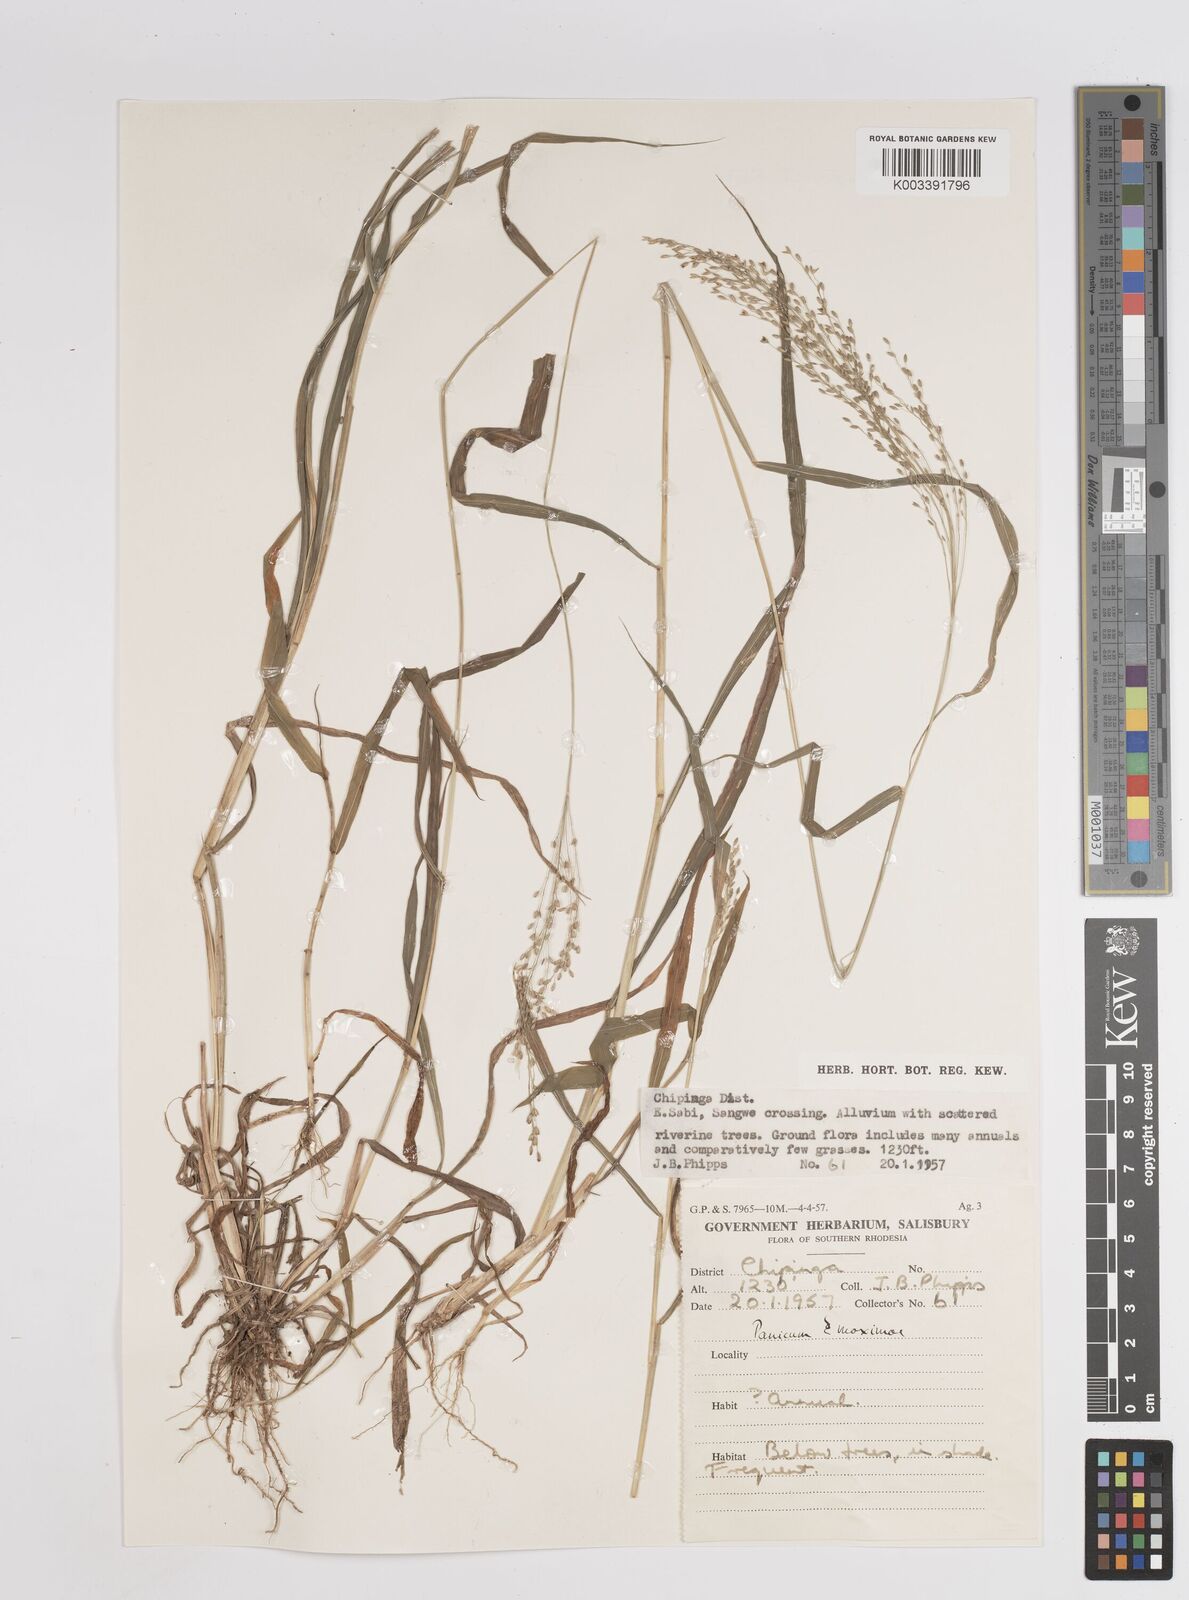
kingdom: Plantae
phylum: Tracheophyta
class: Liliopsida
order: Poales
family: Poaceae
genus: Megathyrsus
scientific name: Megathyrsus maximus
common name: Guineagrass
